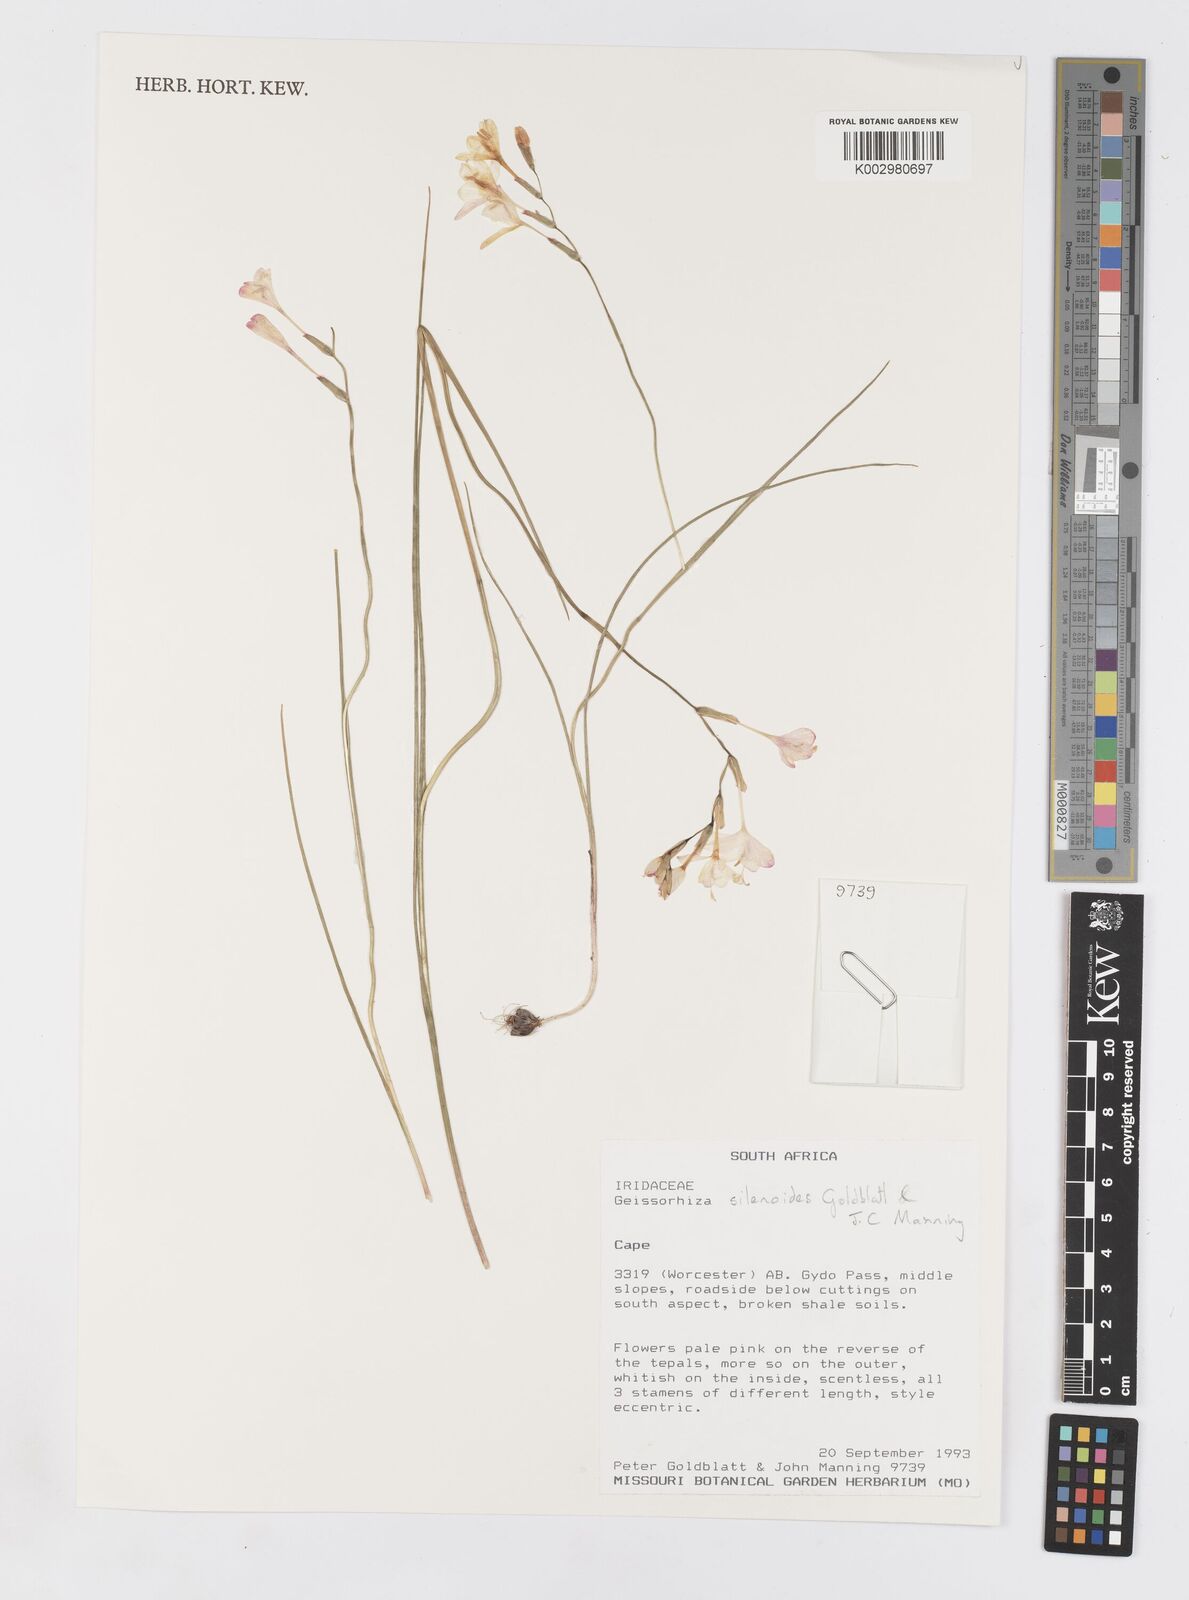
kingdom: Plantae
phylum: Tracheophyta
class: Liliopsida
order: Asparagales
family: Iridaceae
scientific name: Iridaceae
